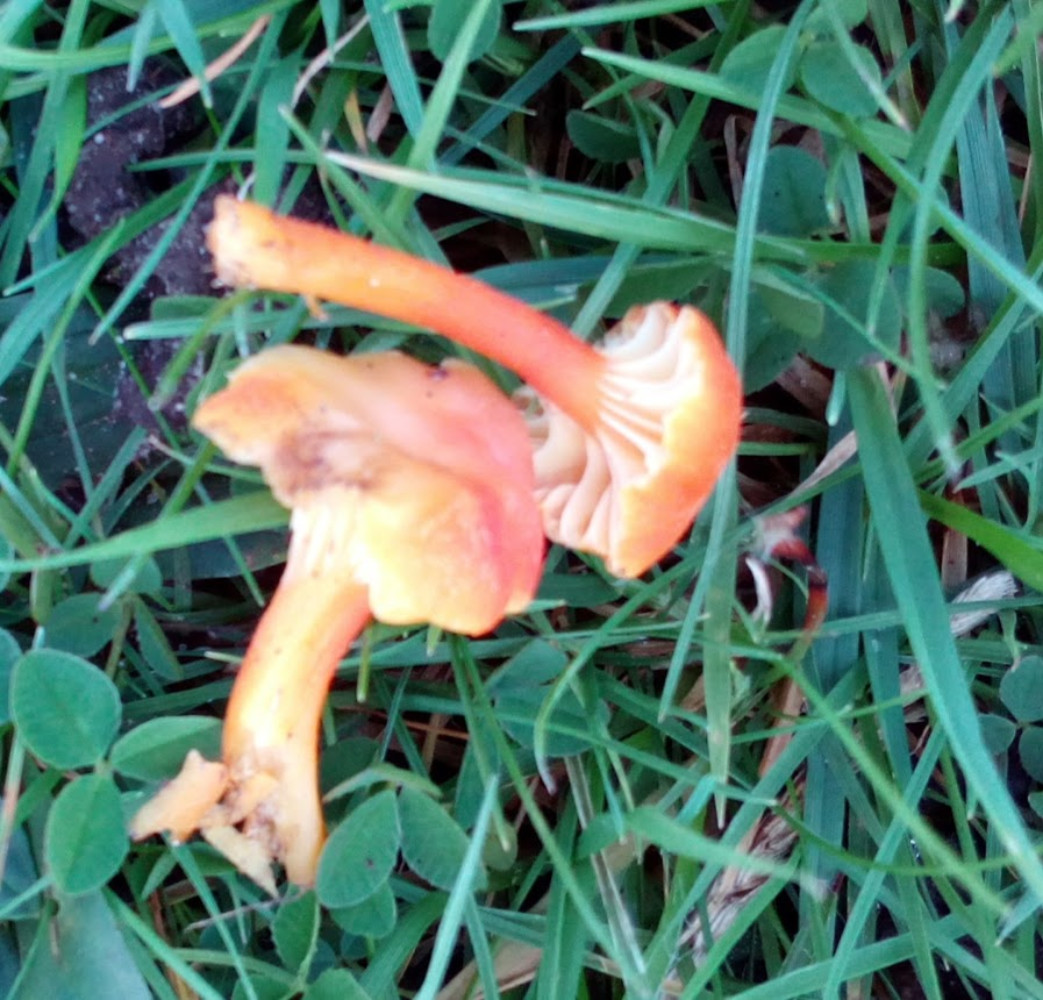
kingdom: Fungi
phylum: Basidiomycota
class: Agaricomycetes
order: Agaricales
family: Hygrophoraceae
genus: Hygrocybe
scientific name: Hygrocybe cantharellus
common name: kantarel-vokshat
